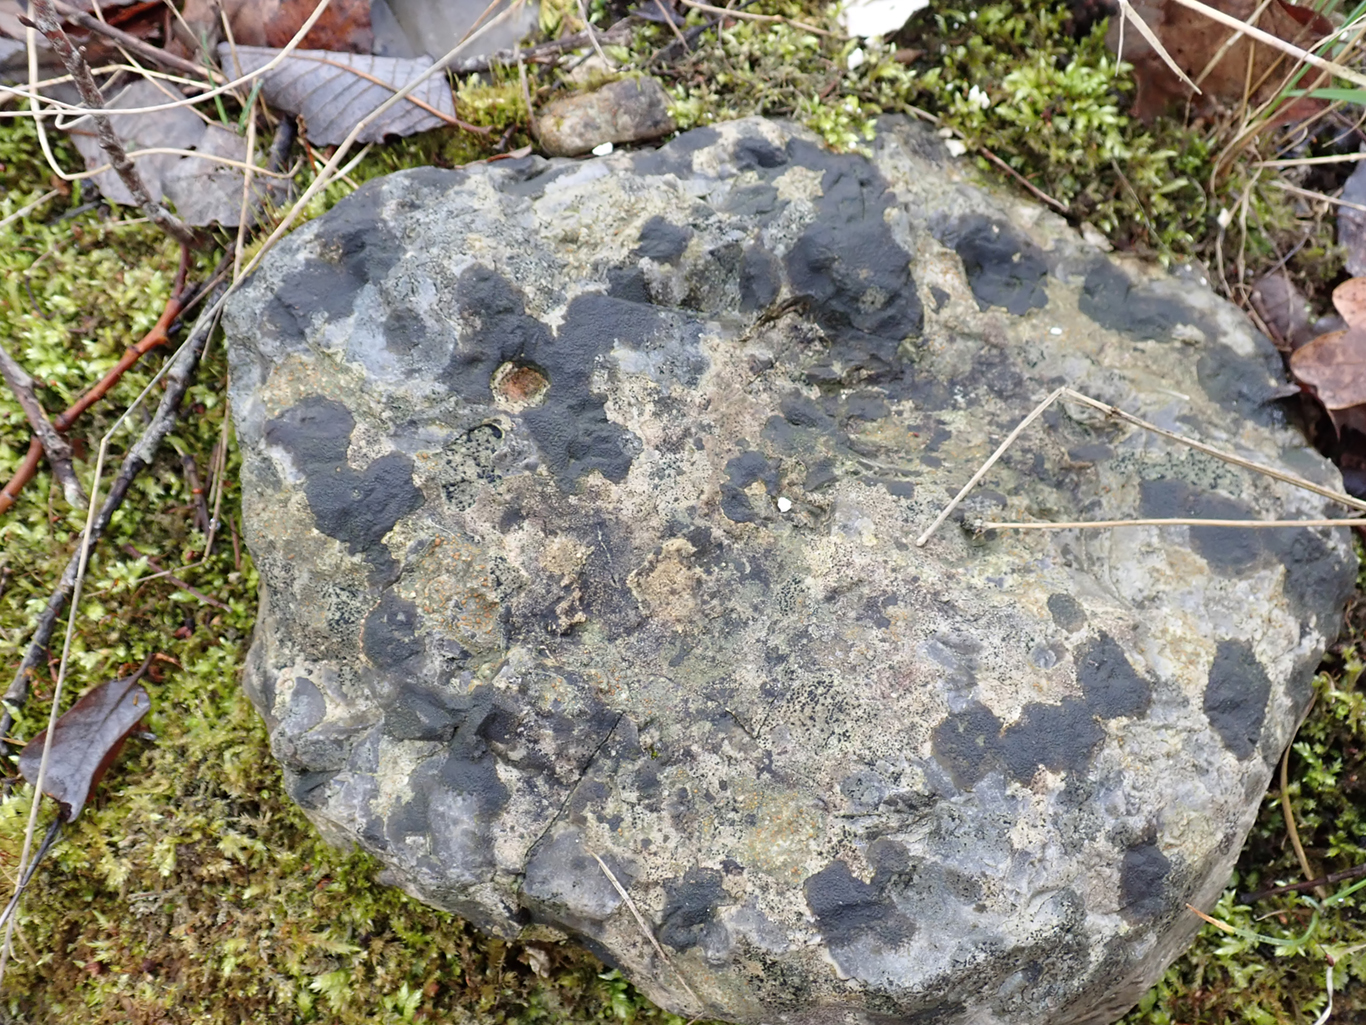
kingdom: Fungi
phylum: Ascomycota
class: Eurotiomycetes
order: Verrucariales
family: Verrucariaceae
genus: Verrucaria
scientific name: Verrucaria nigrescens
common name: sortbrun vortelav
